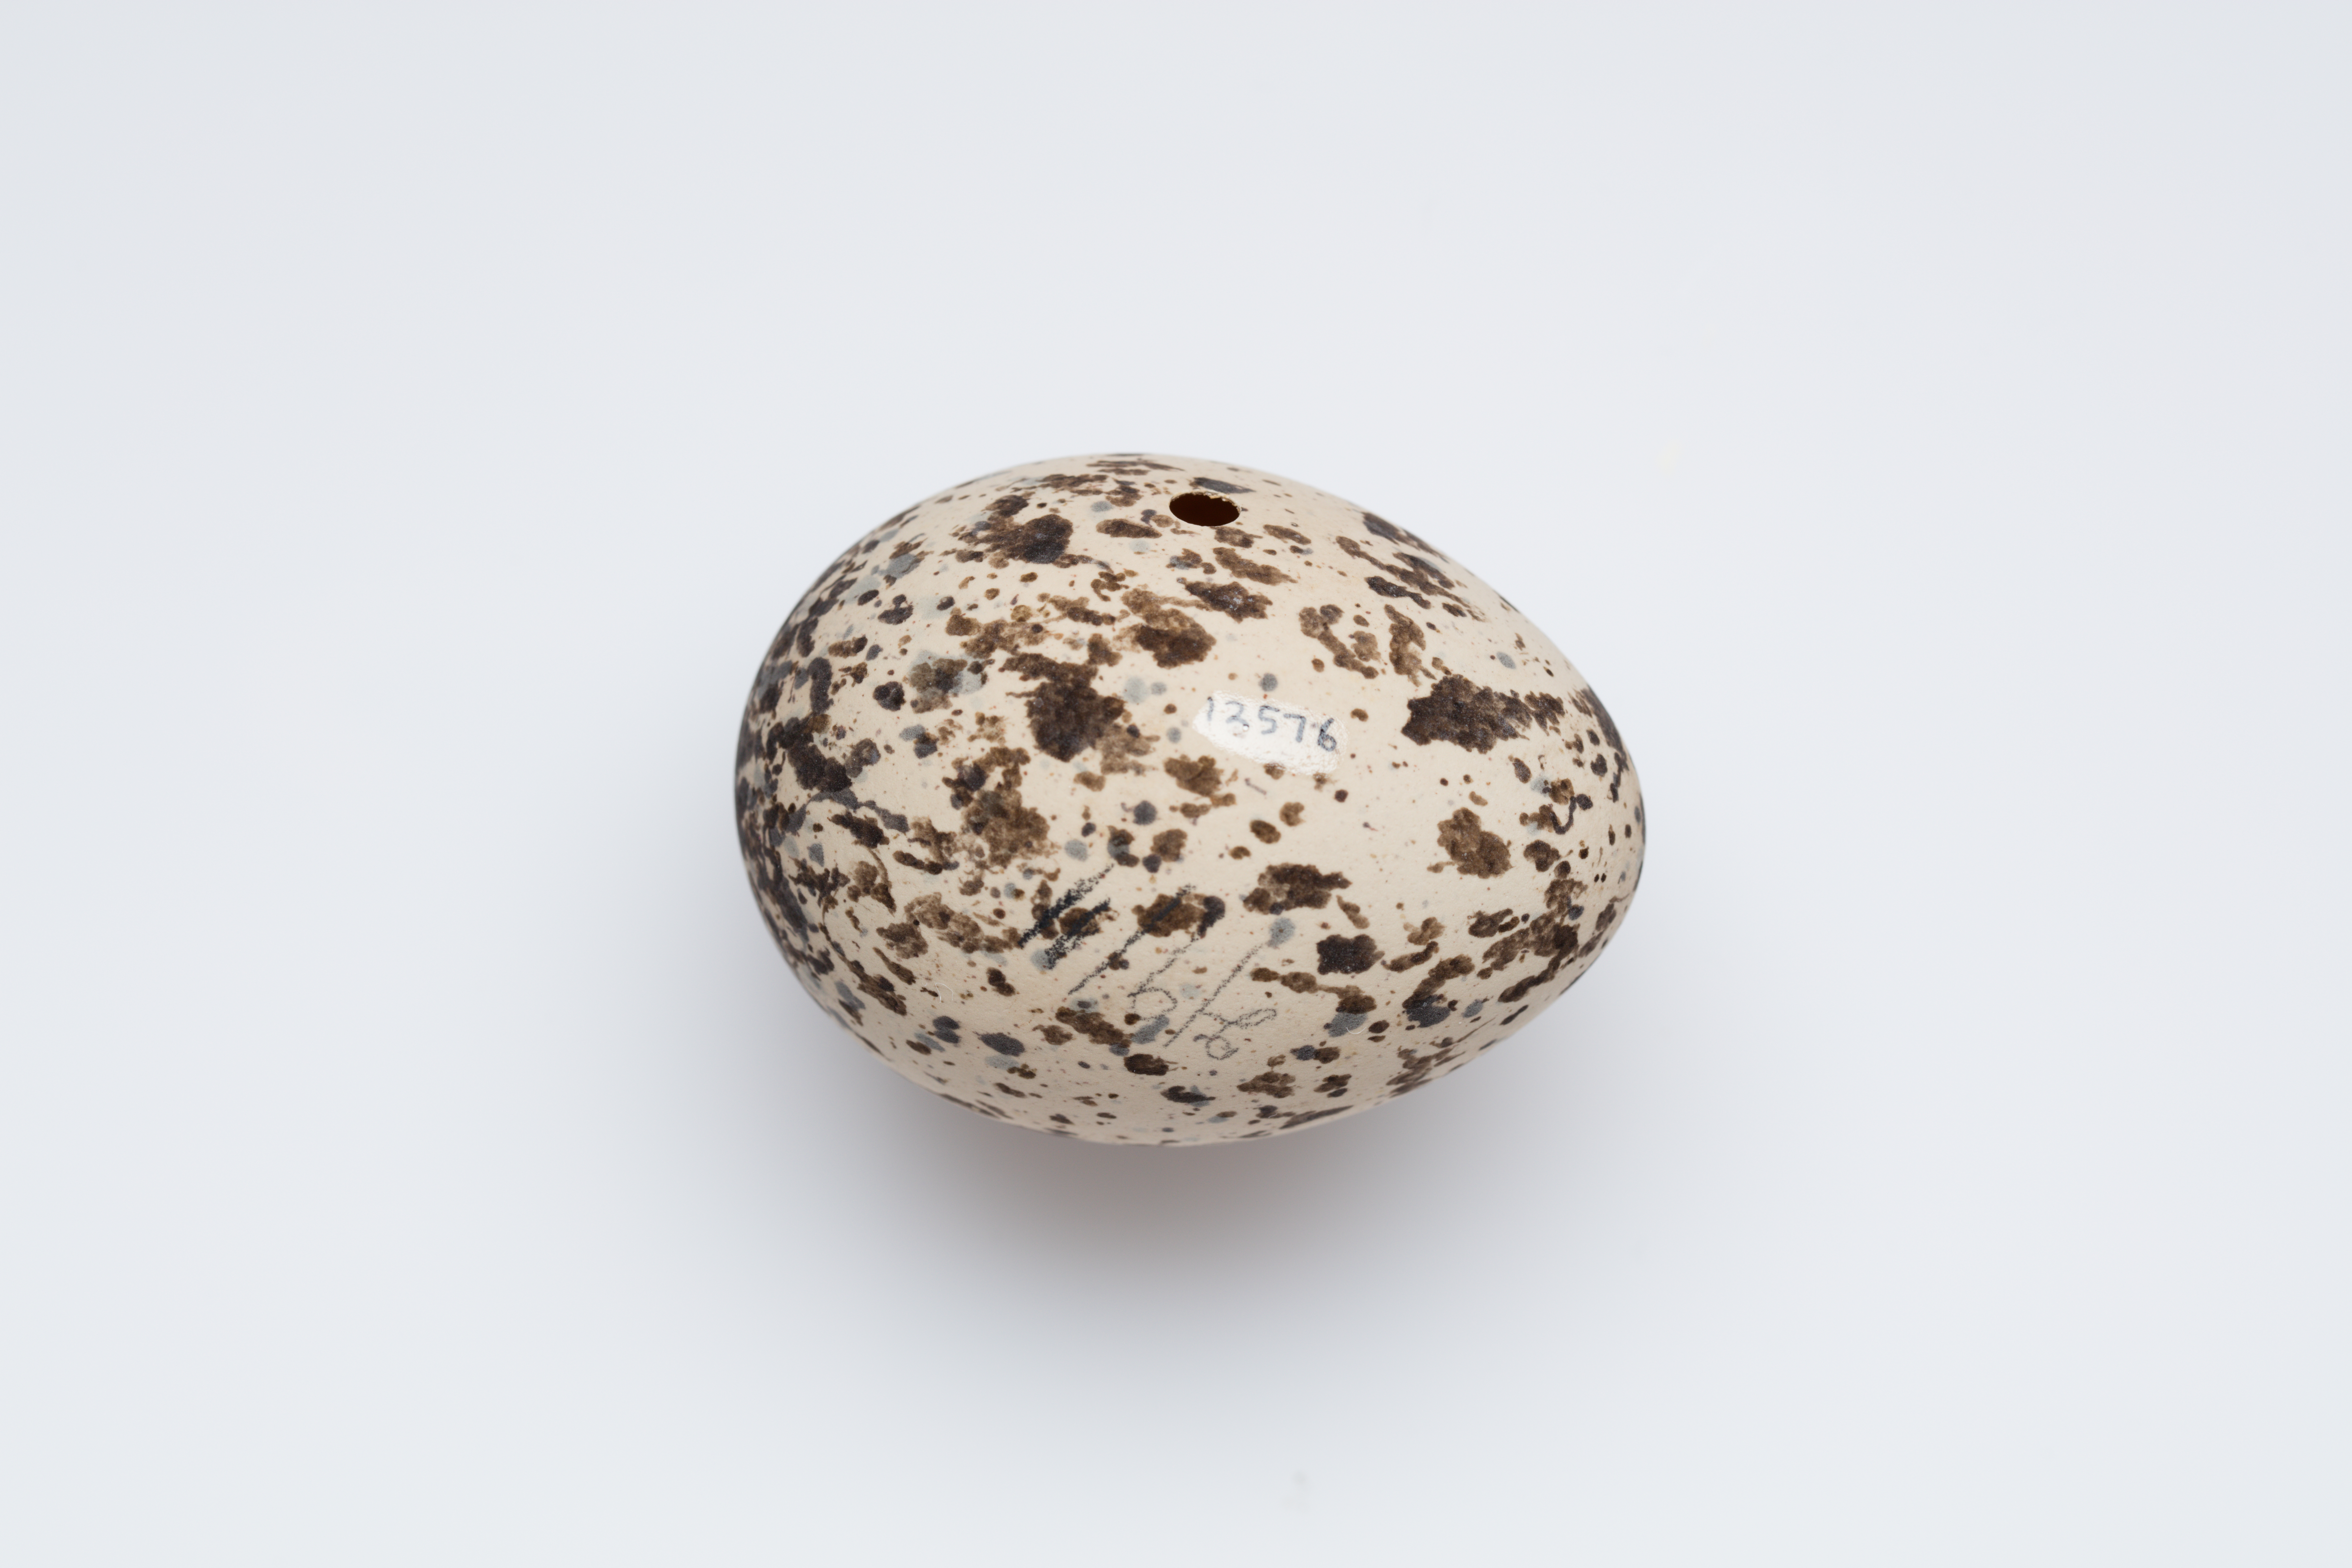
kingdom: Animalia
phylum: Chordata
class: Aves
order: Charadriiformes
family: Laridae
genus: Gelochelidon
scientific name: Gelochelidon nilotica
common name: Gull-billed tern
